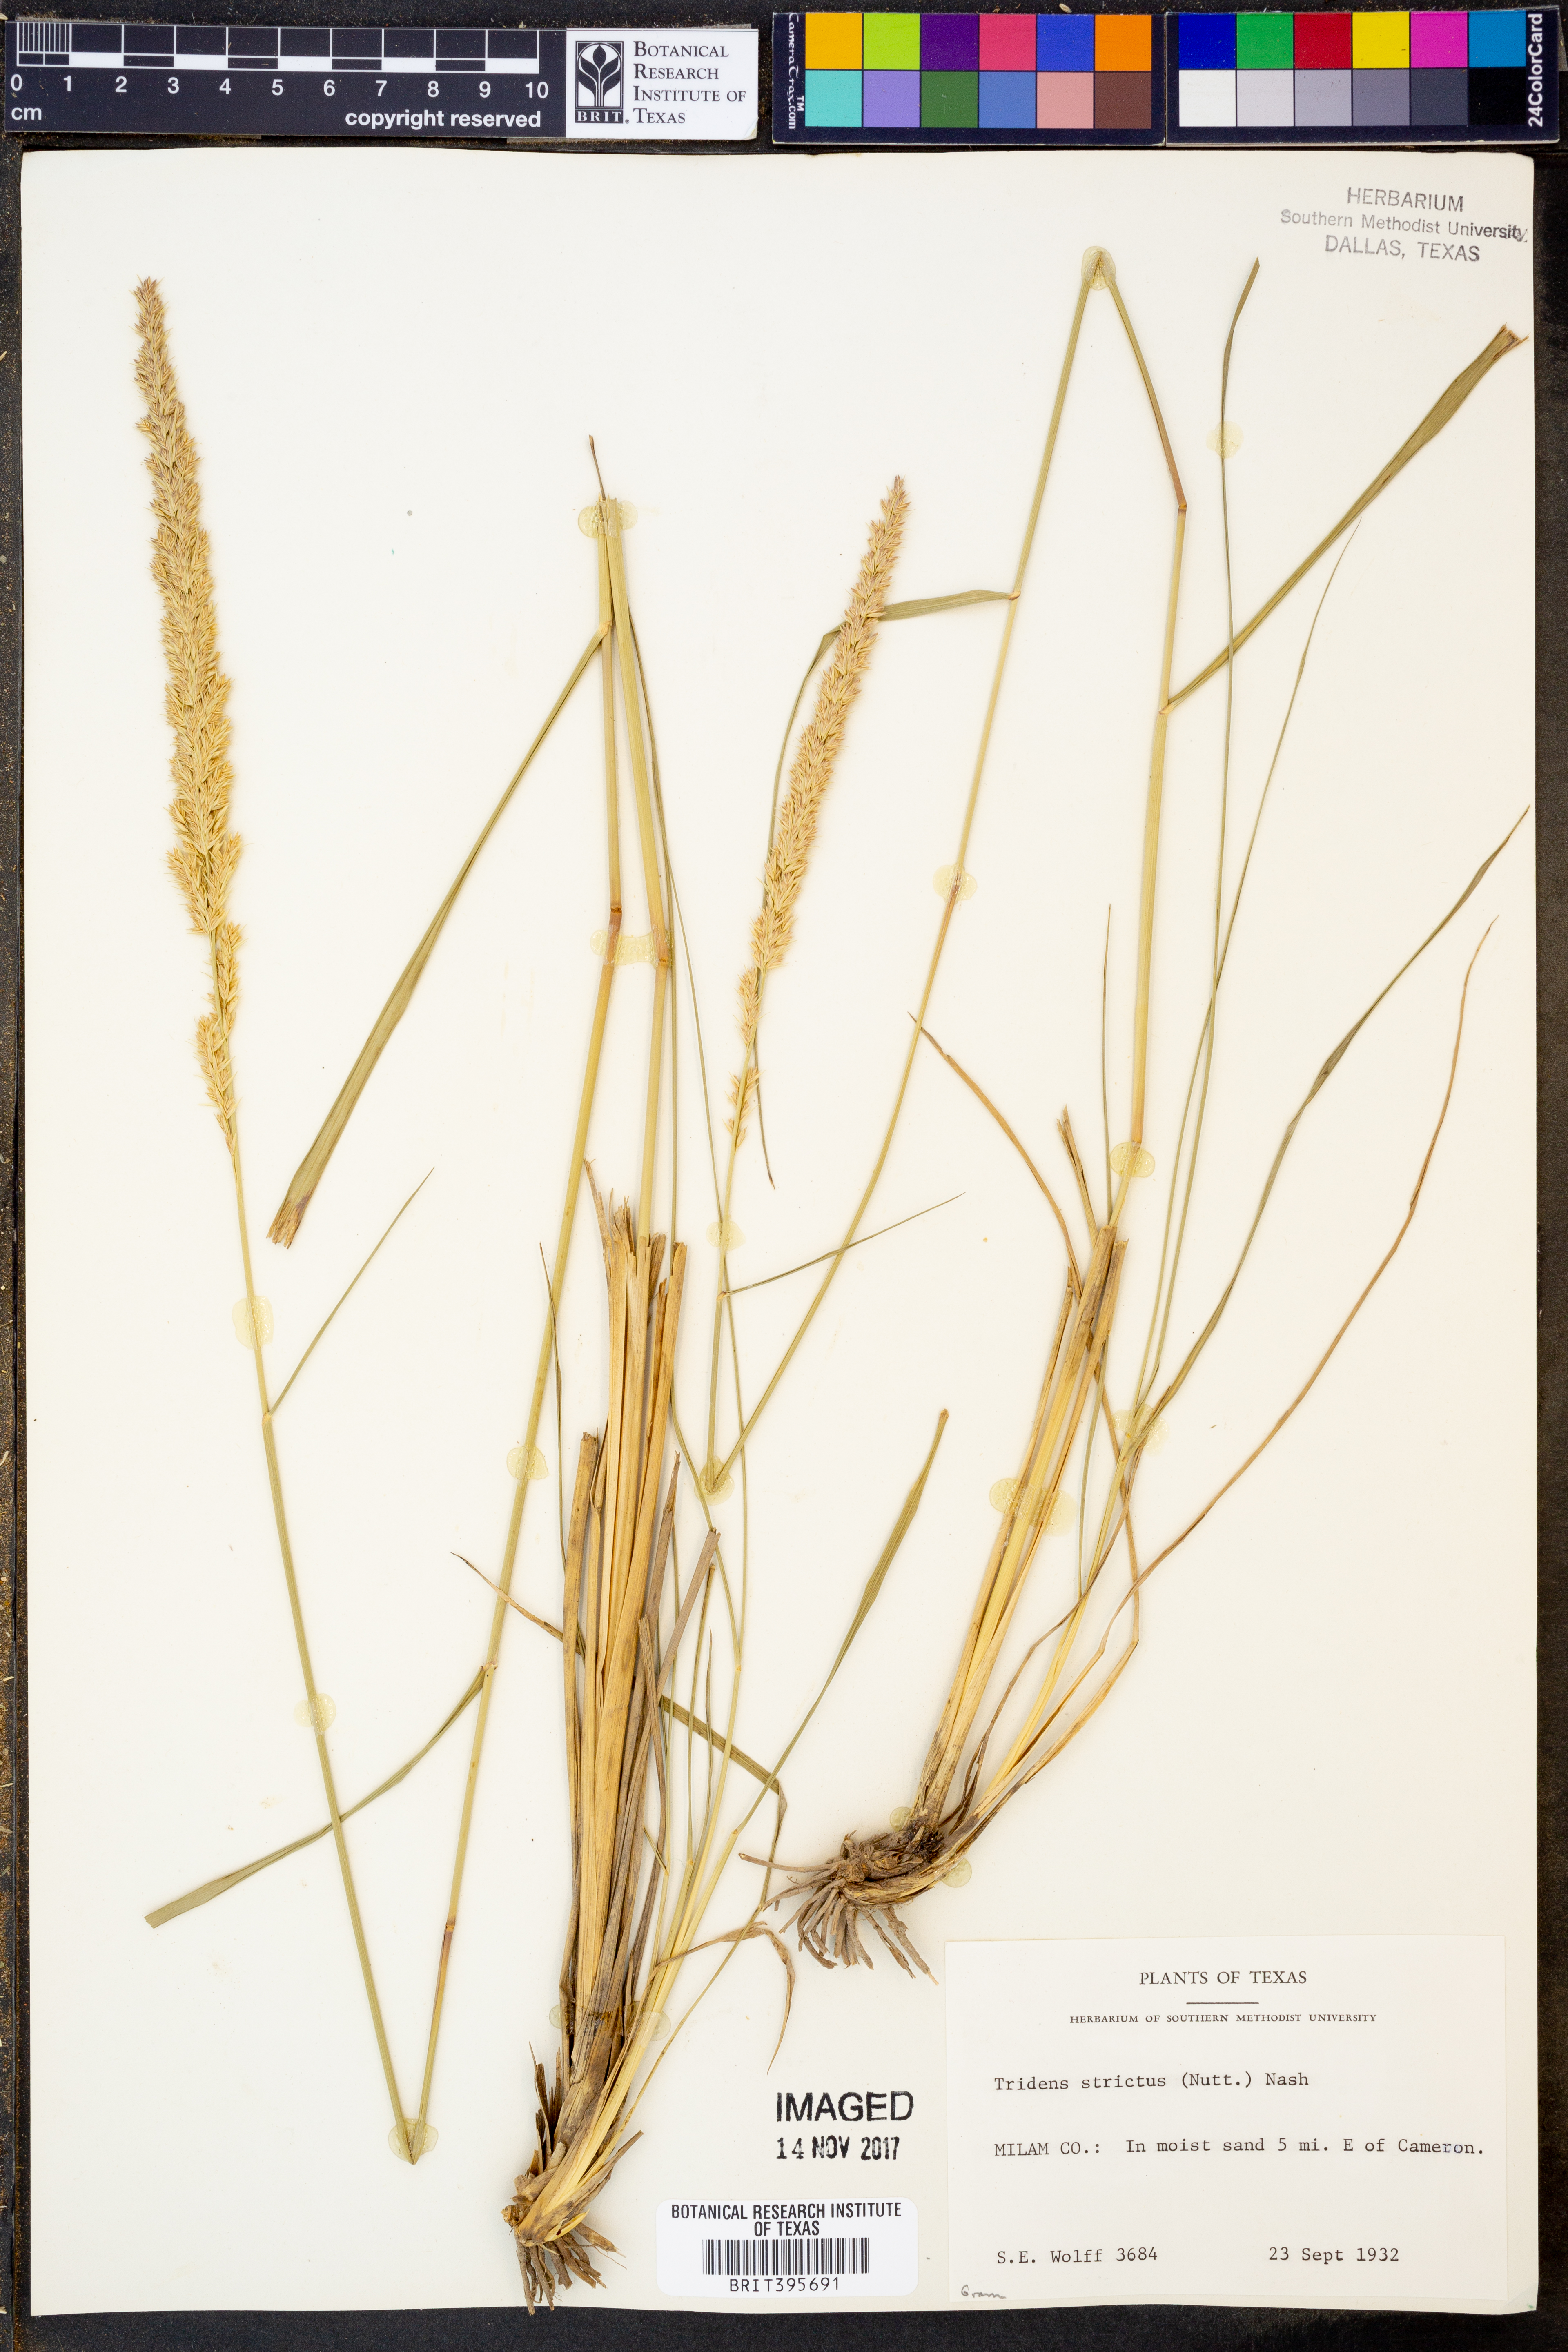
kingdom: Plantae
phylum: Tracheophyta
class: Liliopsida
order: Poales
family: Poaceae
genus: Tridens
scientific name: Tridens strictus
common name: Long-spike tridens
